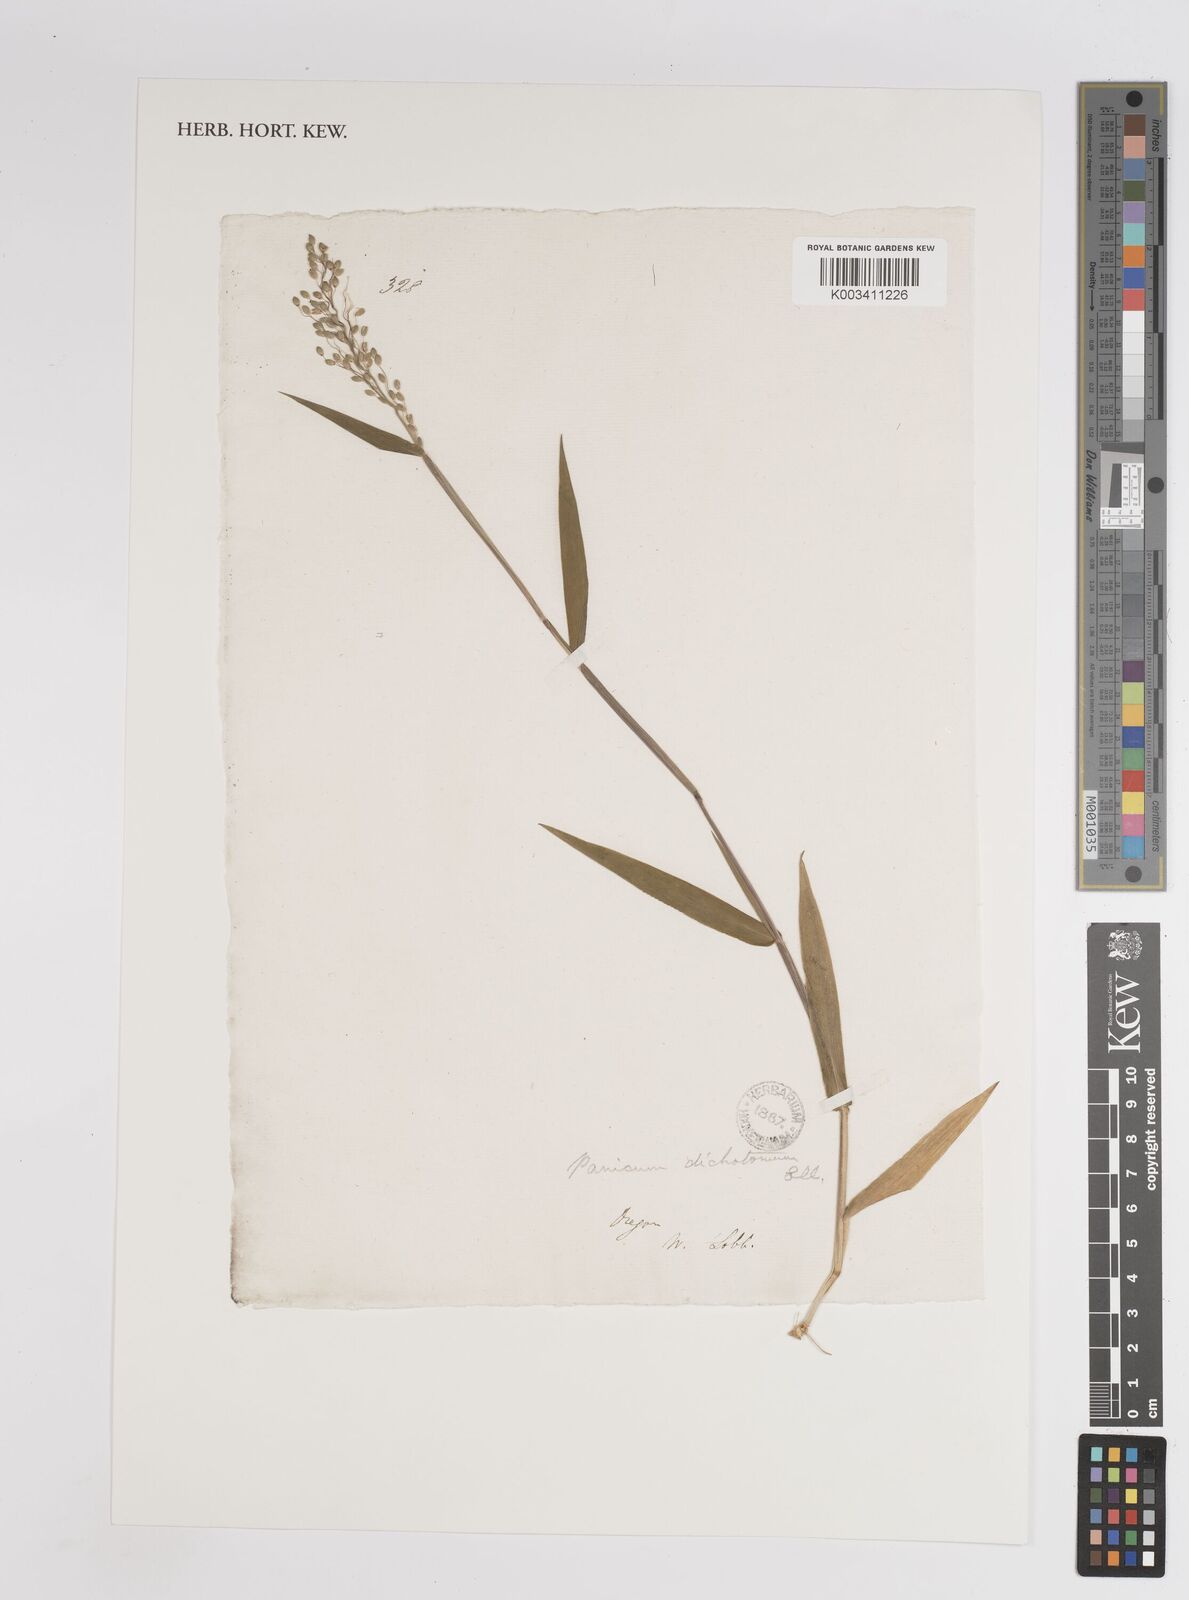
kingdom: Plantae
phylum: Tracheophyta
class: Liliopsida
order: Poales
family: Poaceae
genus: Dichanthelium
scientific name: Dichanthelium scribnerianum
